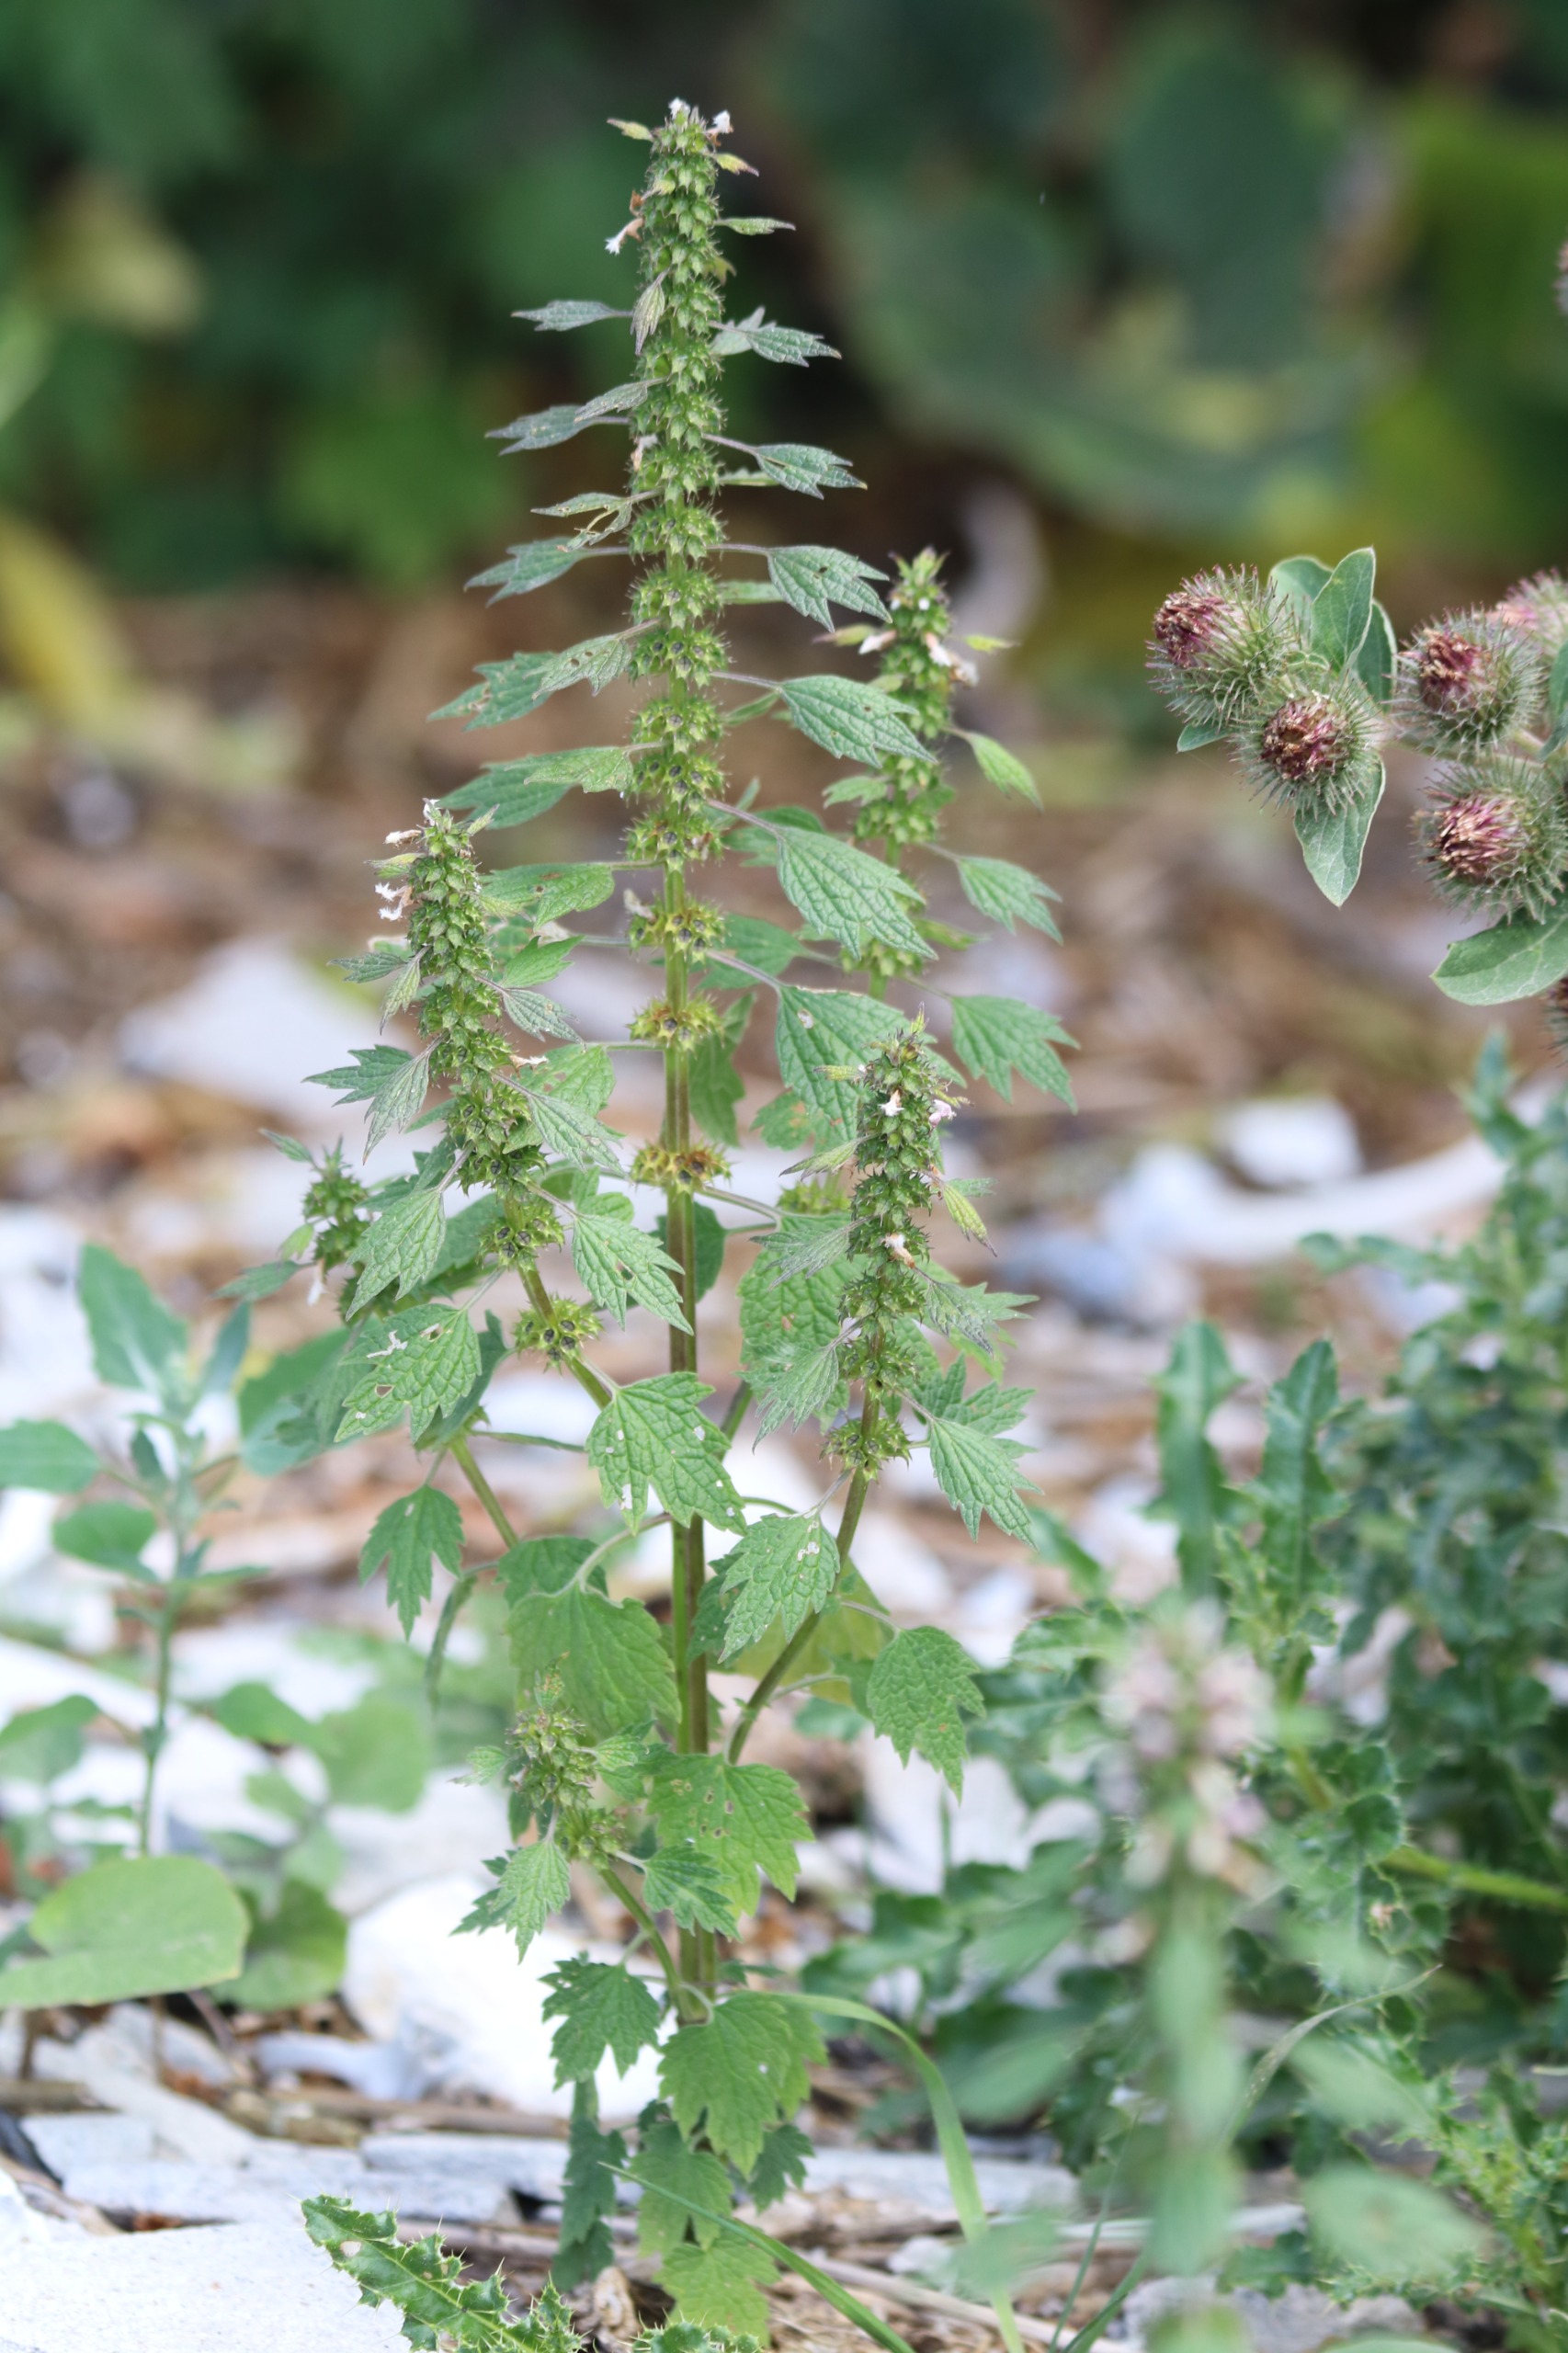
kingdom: Plantae
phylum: Tracheophyta
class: Magnoliopsida
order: Lamiales
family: Lamiaceae
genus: Leonurus
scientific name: Leonurus cardiaca
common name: Hjertespand
